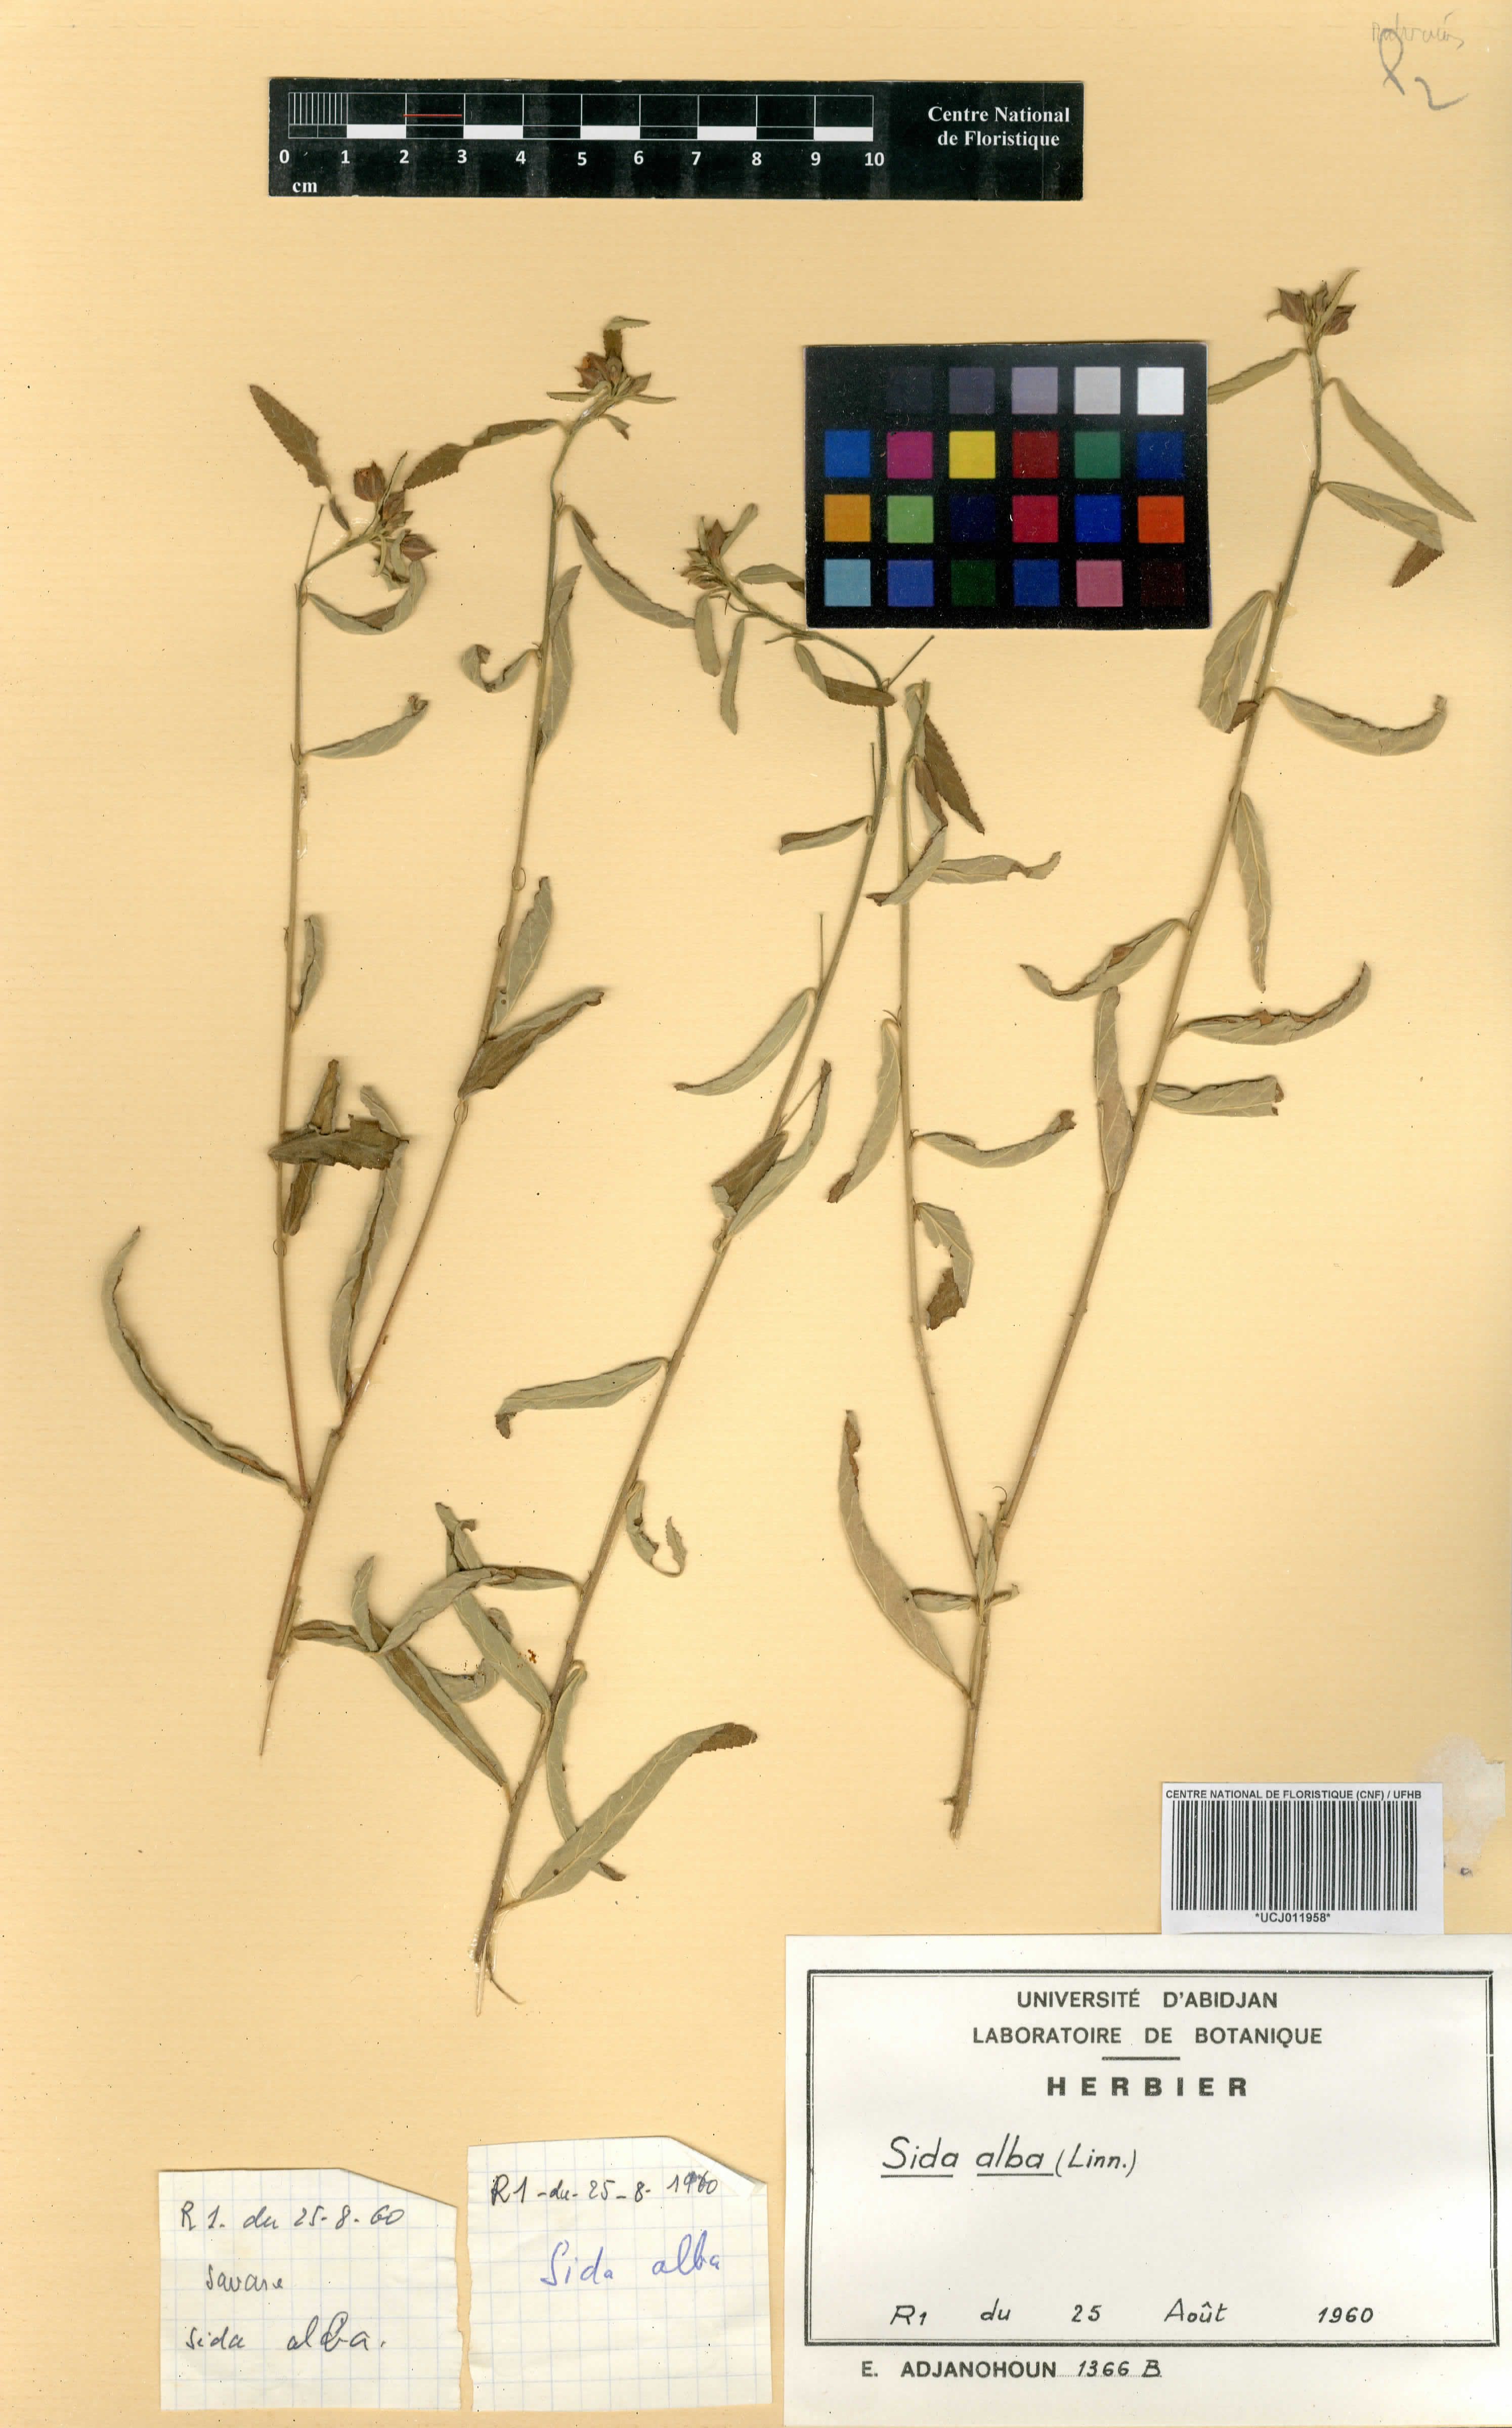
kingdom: Plantae
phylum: Tracheophyta
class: Magnoliopsida
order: Malvales
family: Malvaceae
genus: Sida
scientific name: Sida alba
